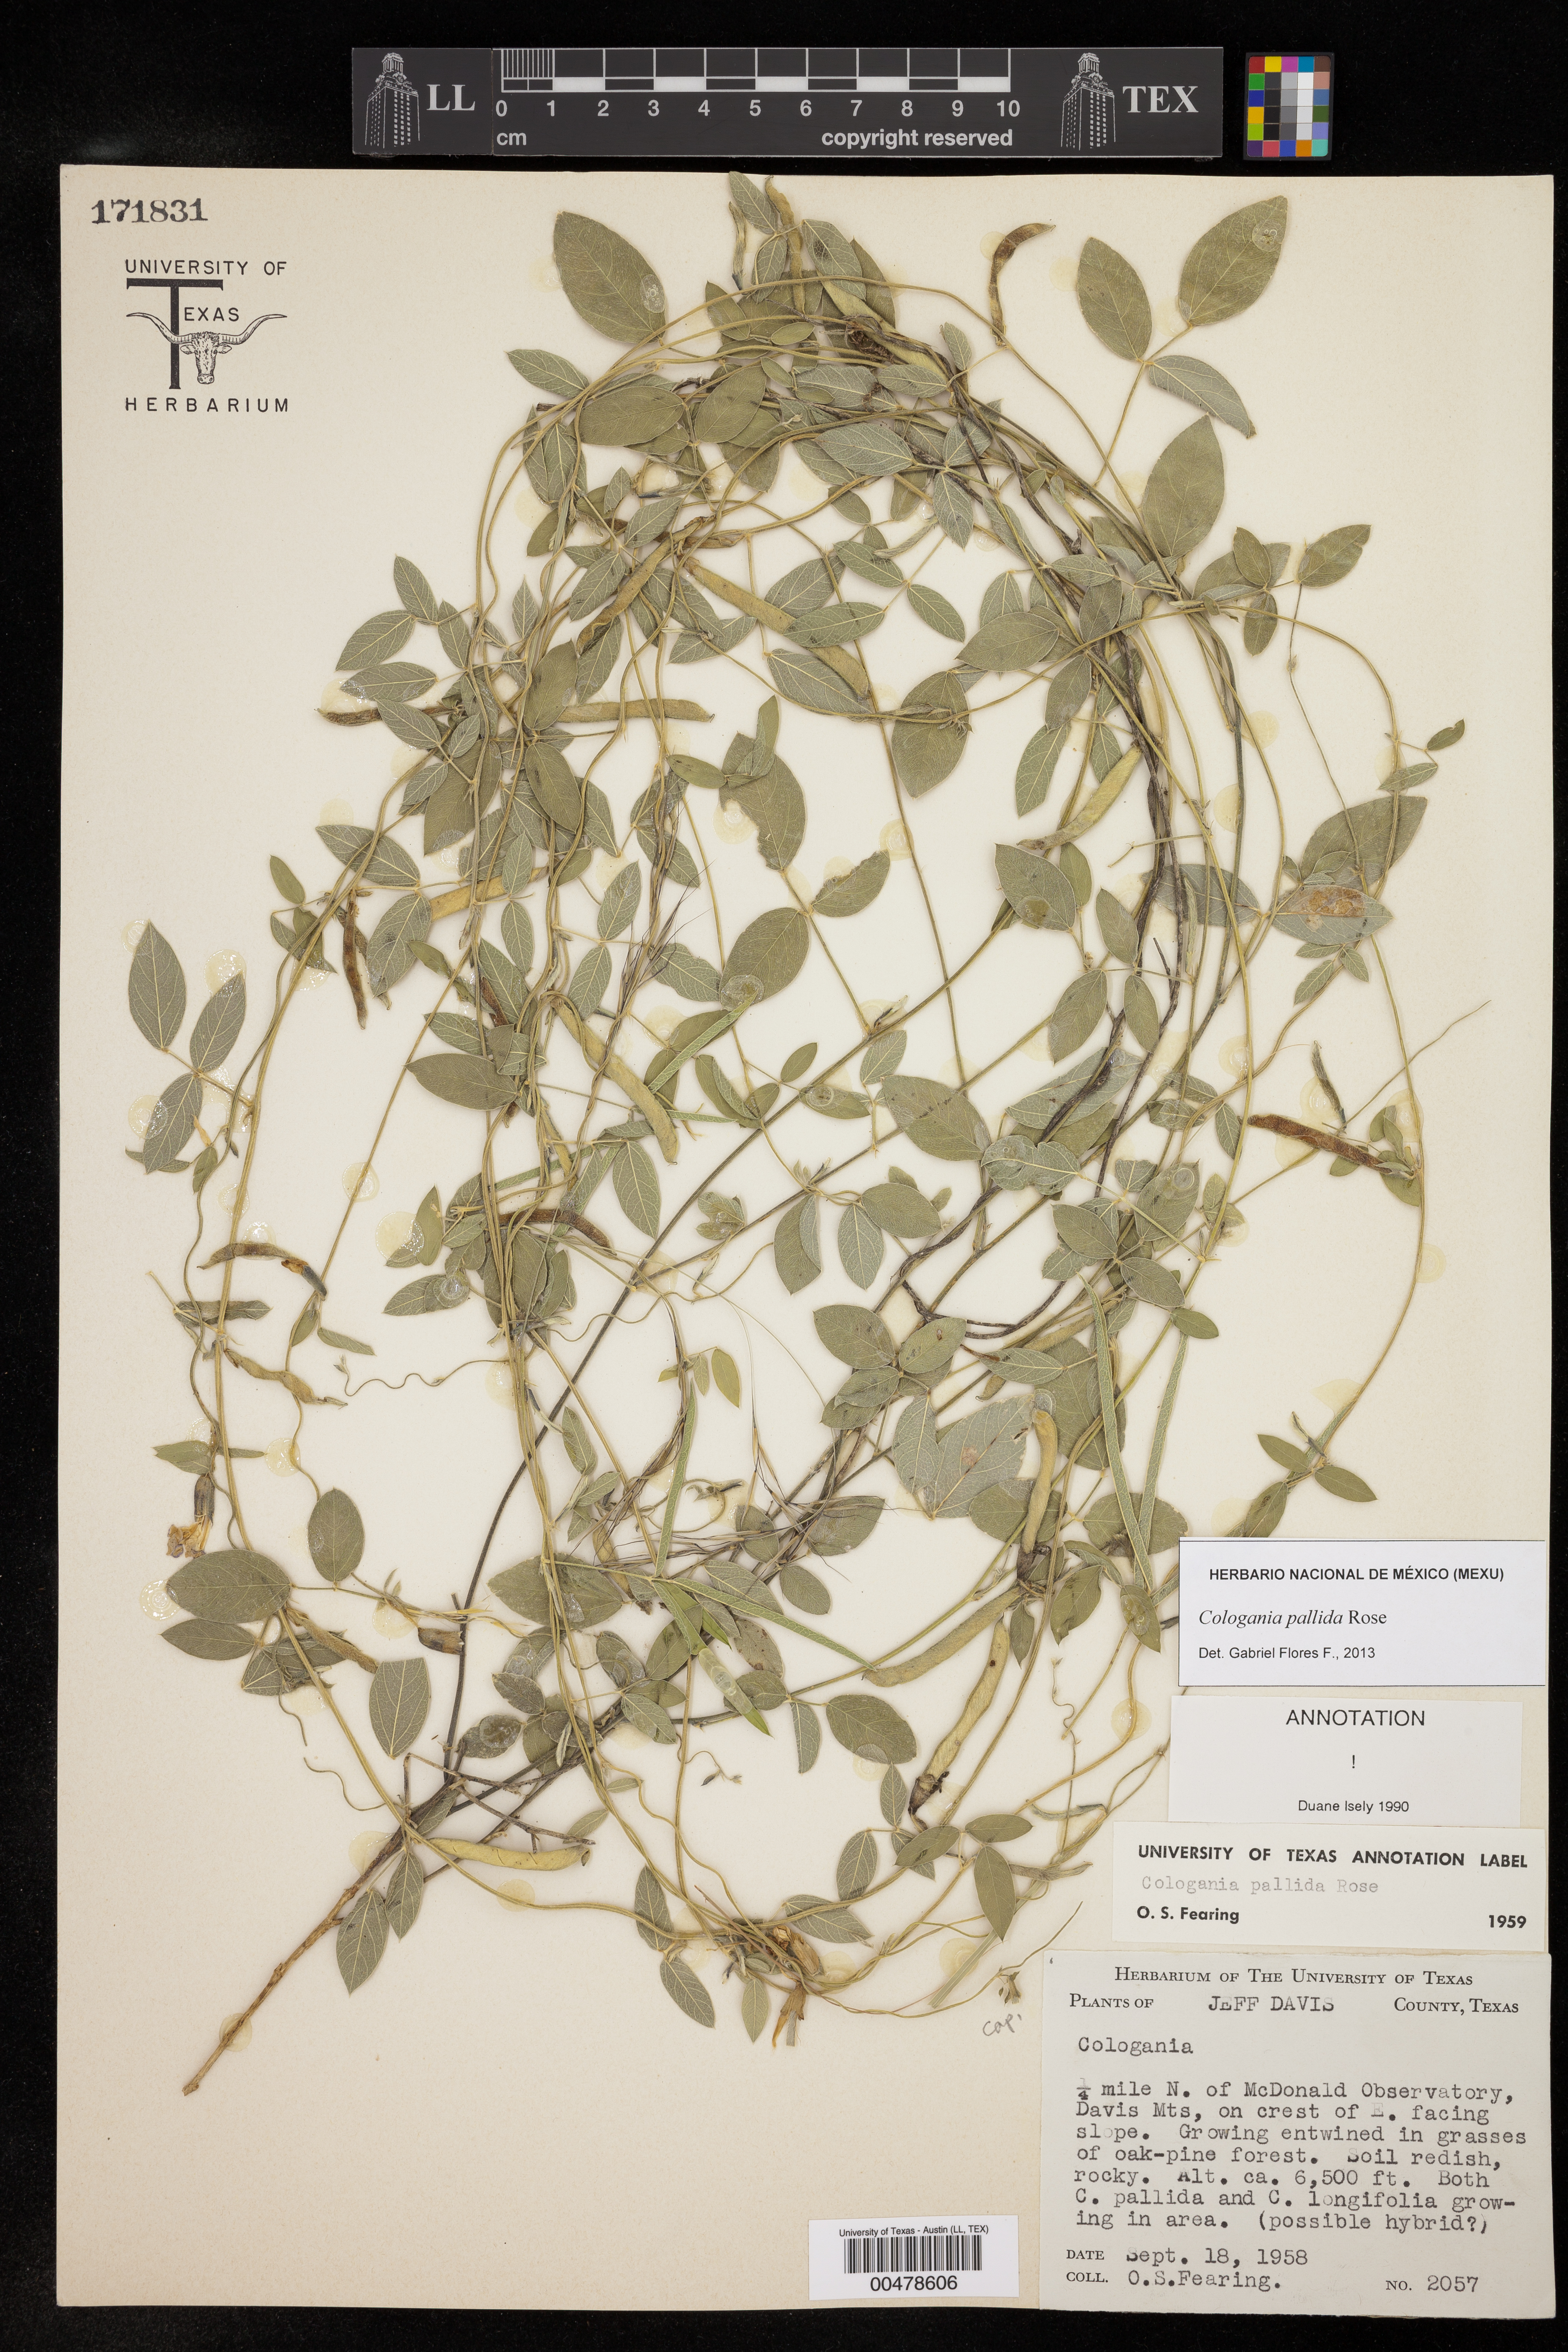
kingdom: Plantae
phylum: Tracheophyta
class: Magnoliopsida
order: Fabales
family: Fabaceae
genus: Cologania
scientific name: Cologania pallida
